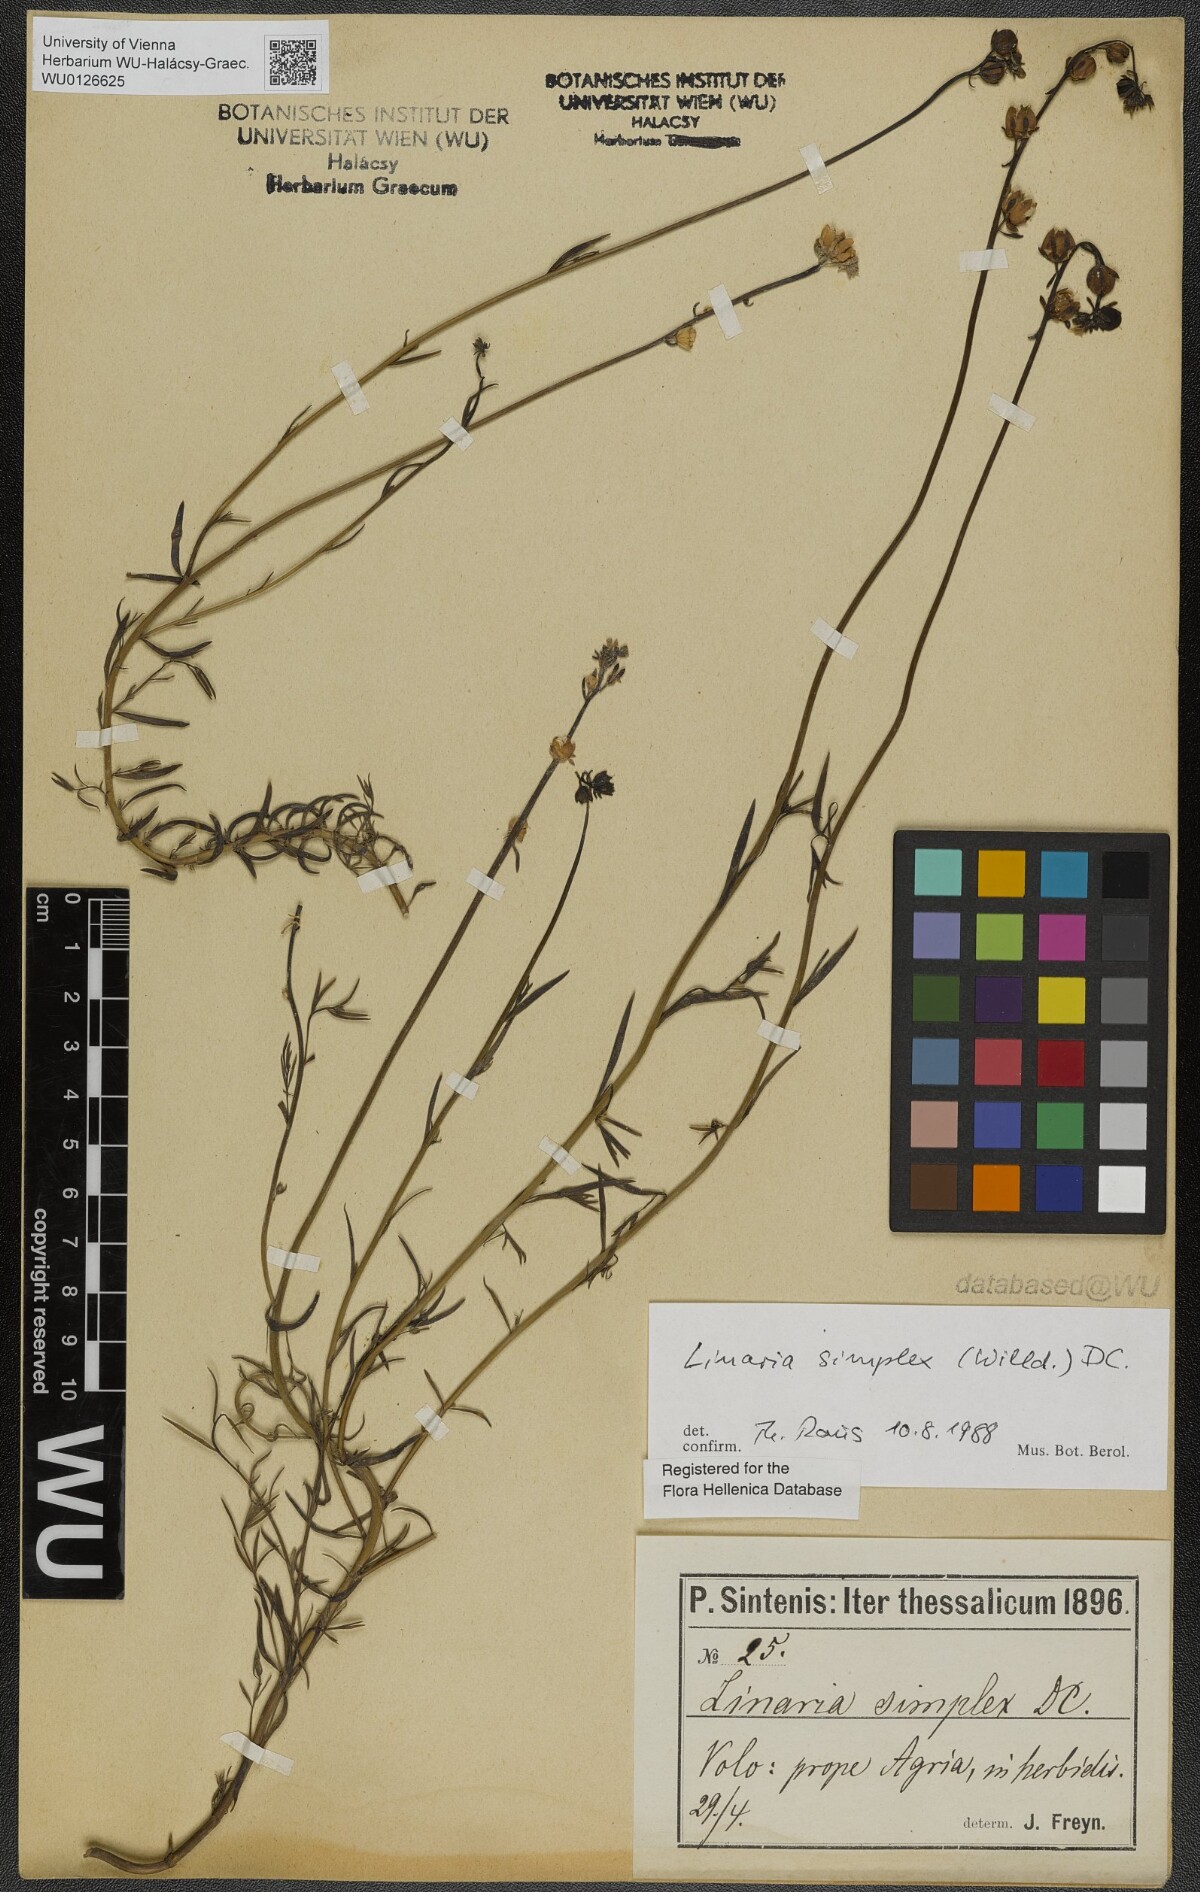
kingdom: Plantae
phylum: Tracheophyta
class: Magnoliopsida
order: Lamiales
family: Plantaginaceae
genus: Linaria
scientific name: Linaria simplex
